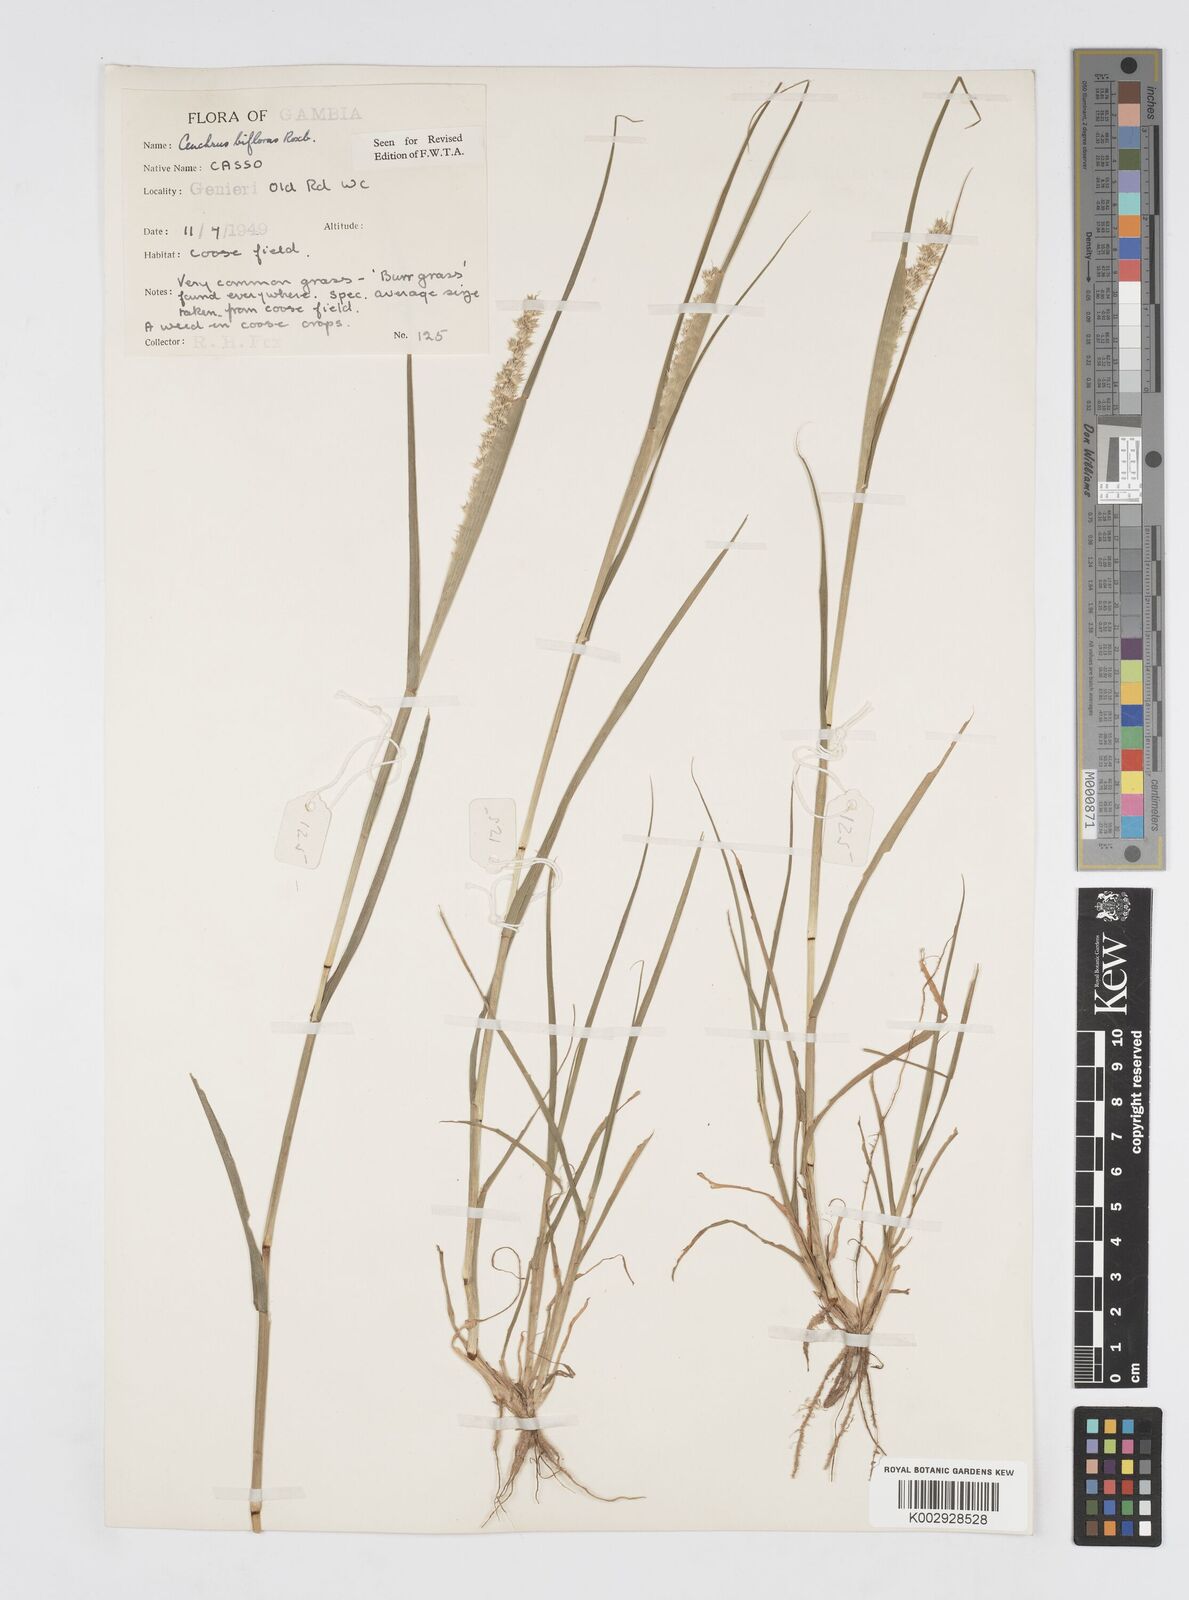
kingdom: Plantae
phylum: Tracheophyta
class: Liliopsida
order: Poales
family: Poaceae
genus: Cenchrus
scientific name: Cenchrus biflorus
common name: Indian sandbur
